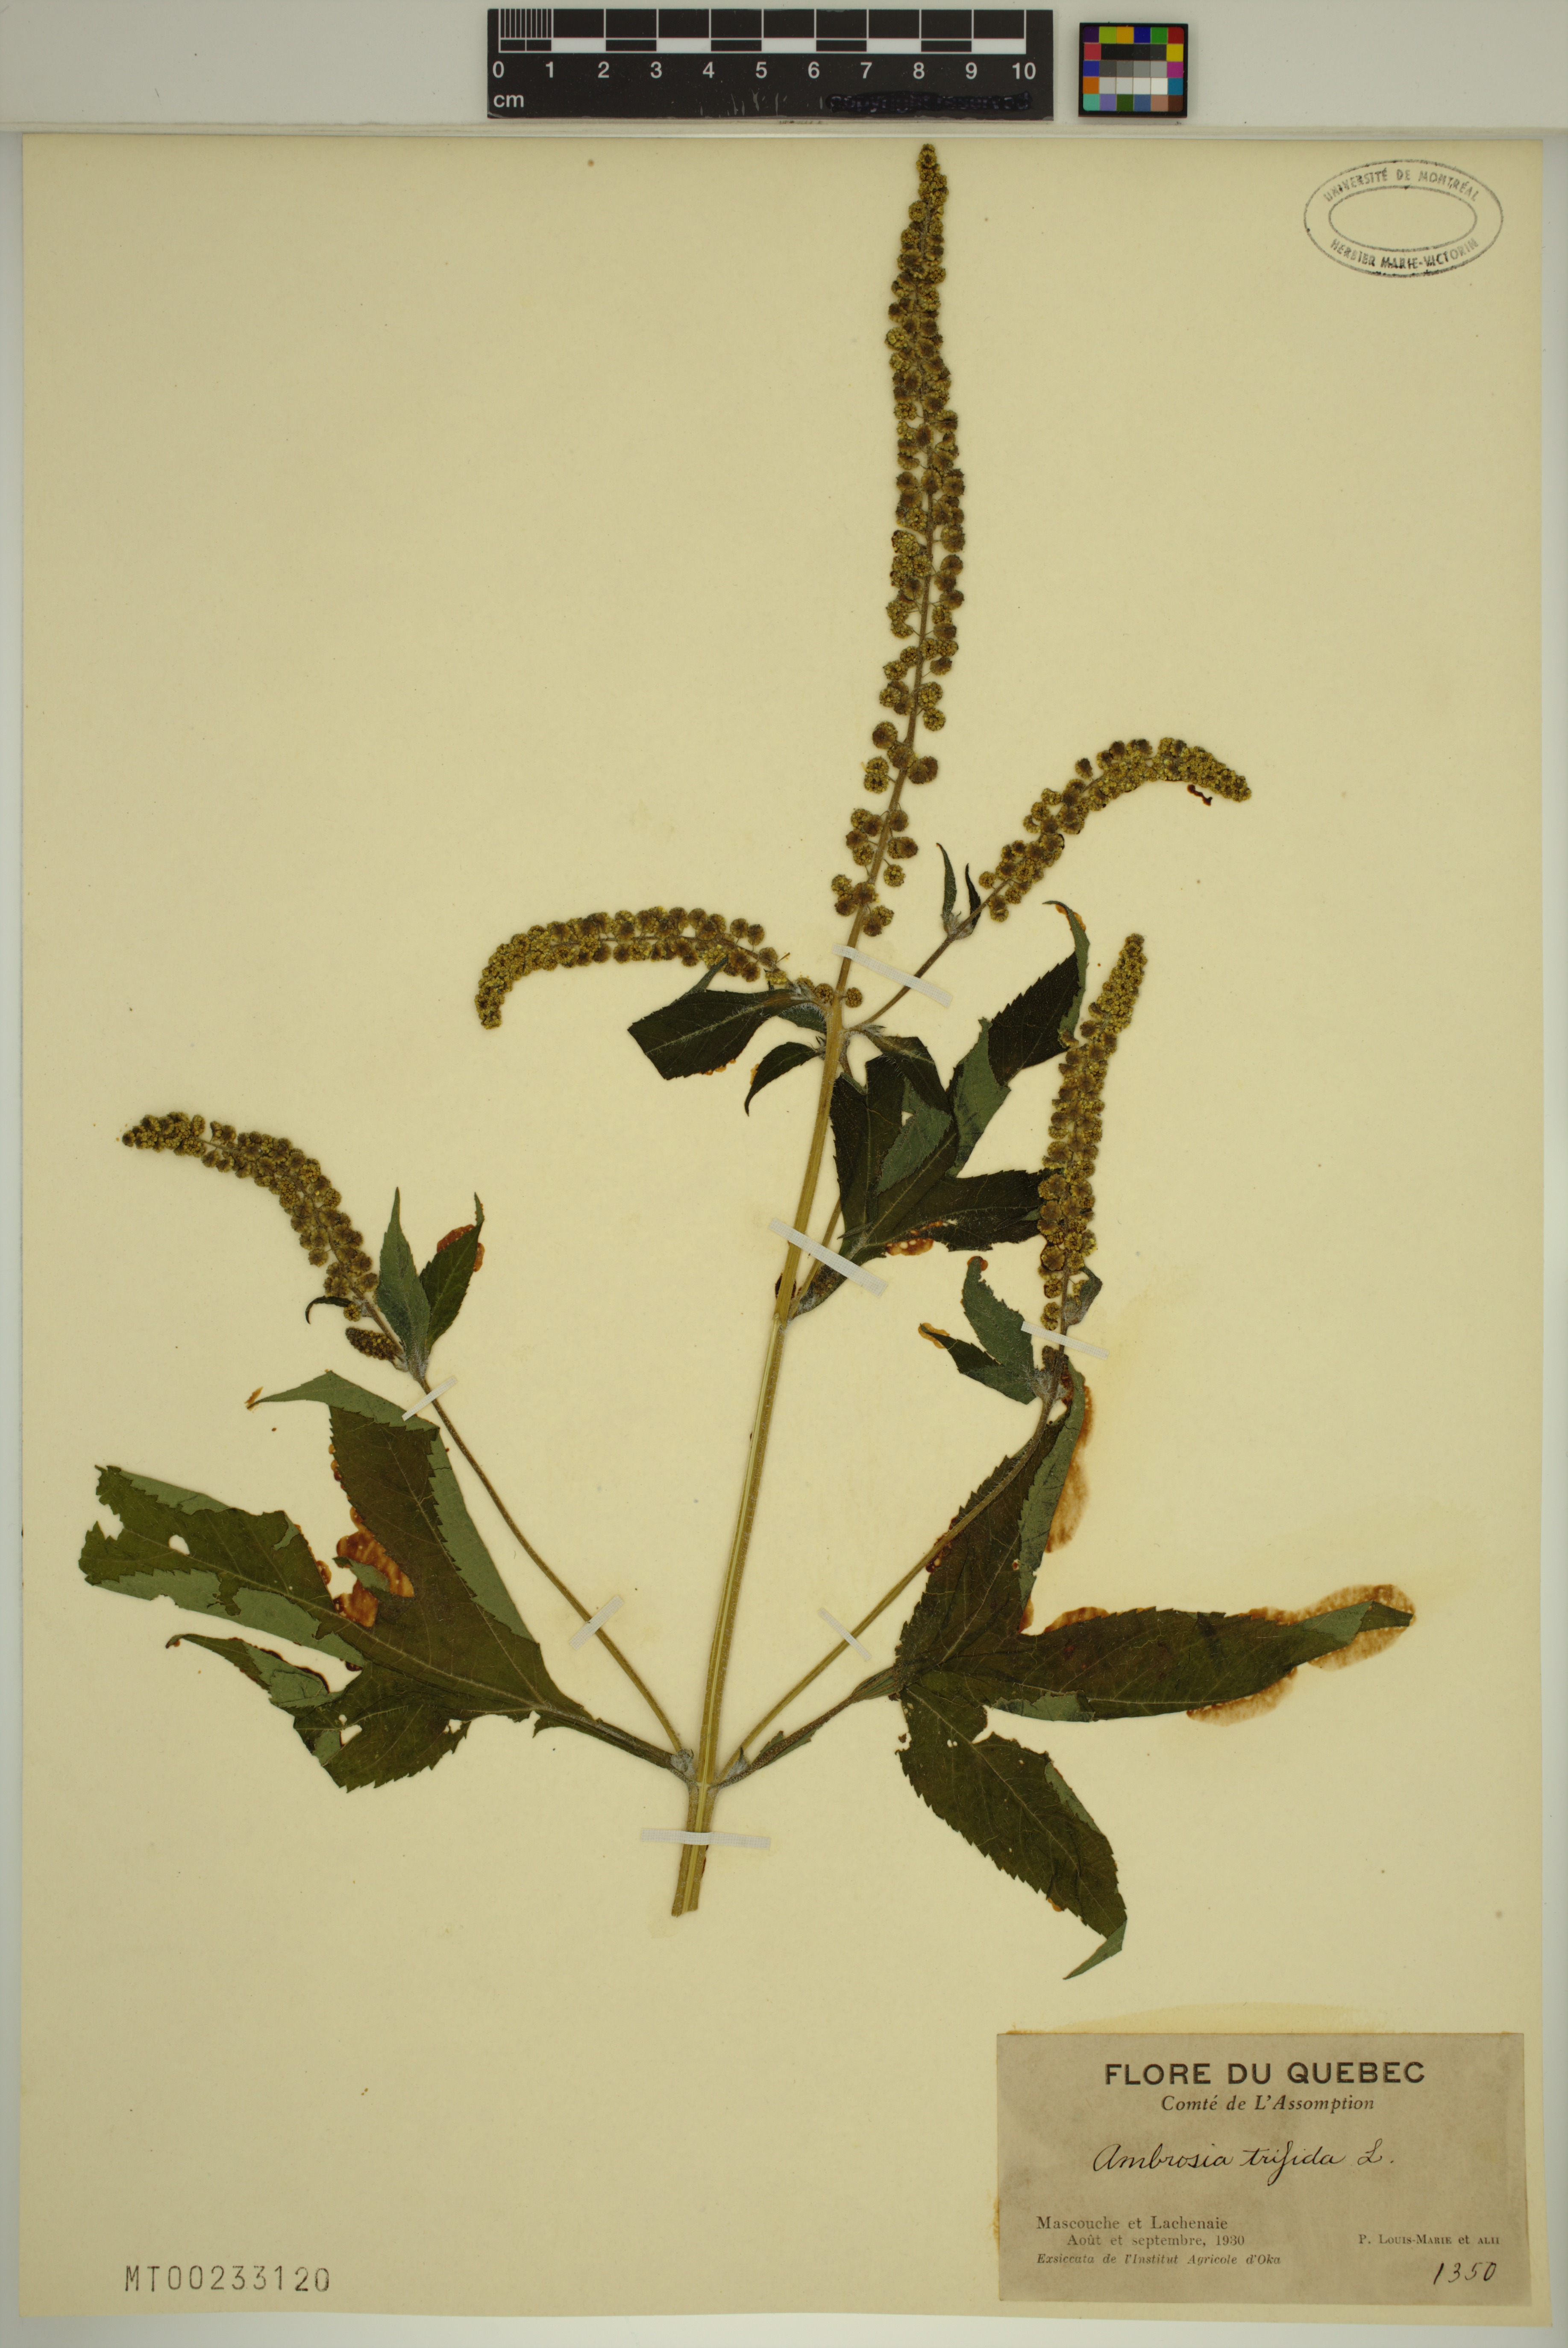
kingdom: Plantae
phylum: Tracheophyta
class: Magnoliopsida
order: Asterales
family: Asteraceae
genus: Ambrosia
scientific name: Ambrosia trifida
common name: Giant ragweed
